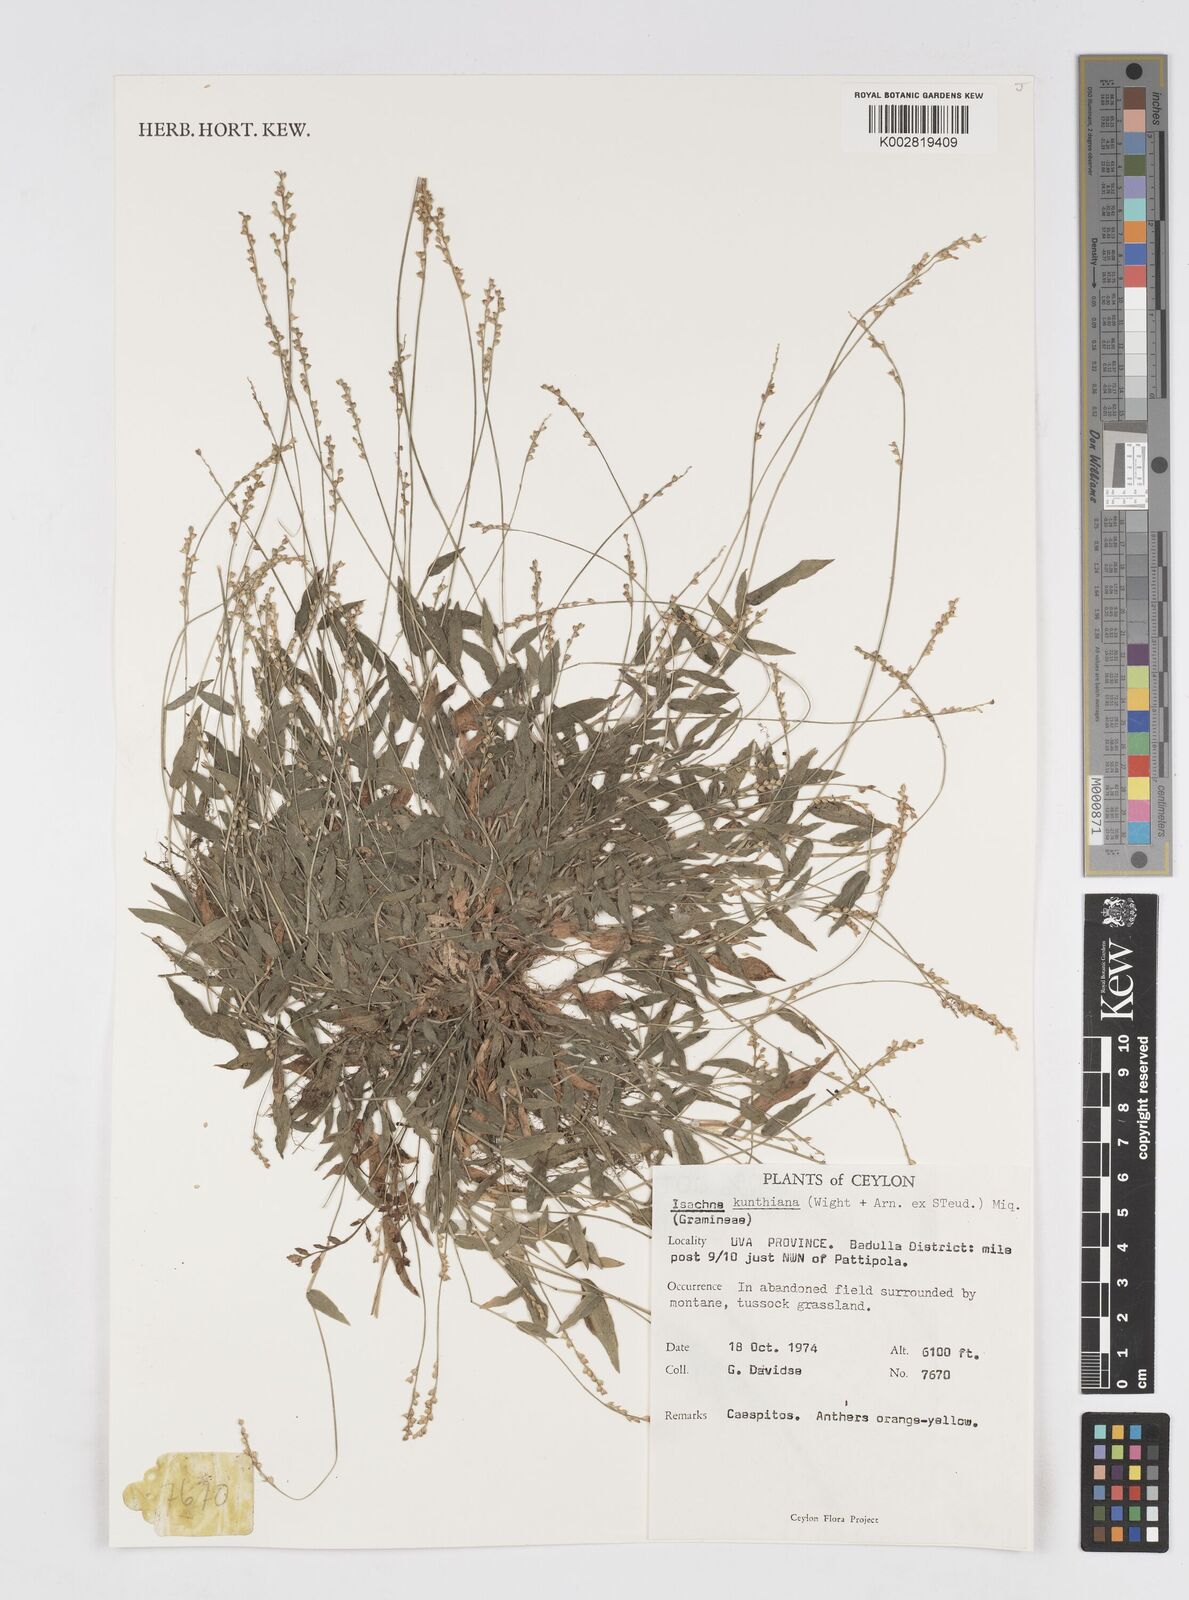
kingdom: Plantae
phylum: Tracheophyta
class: Liliopsida
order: Poales
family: Poaceae
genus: Isachne
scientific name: Isachne kunthiana
